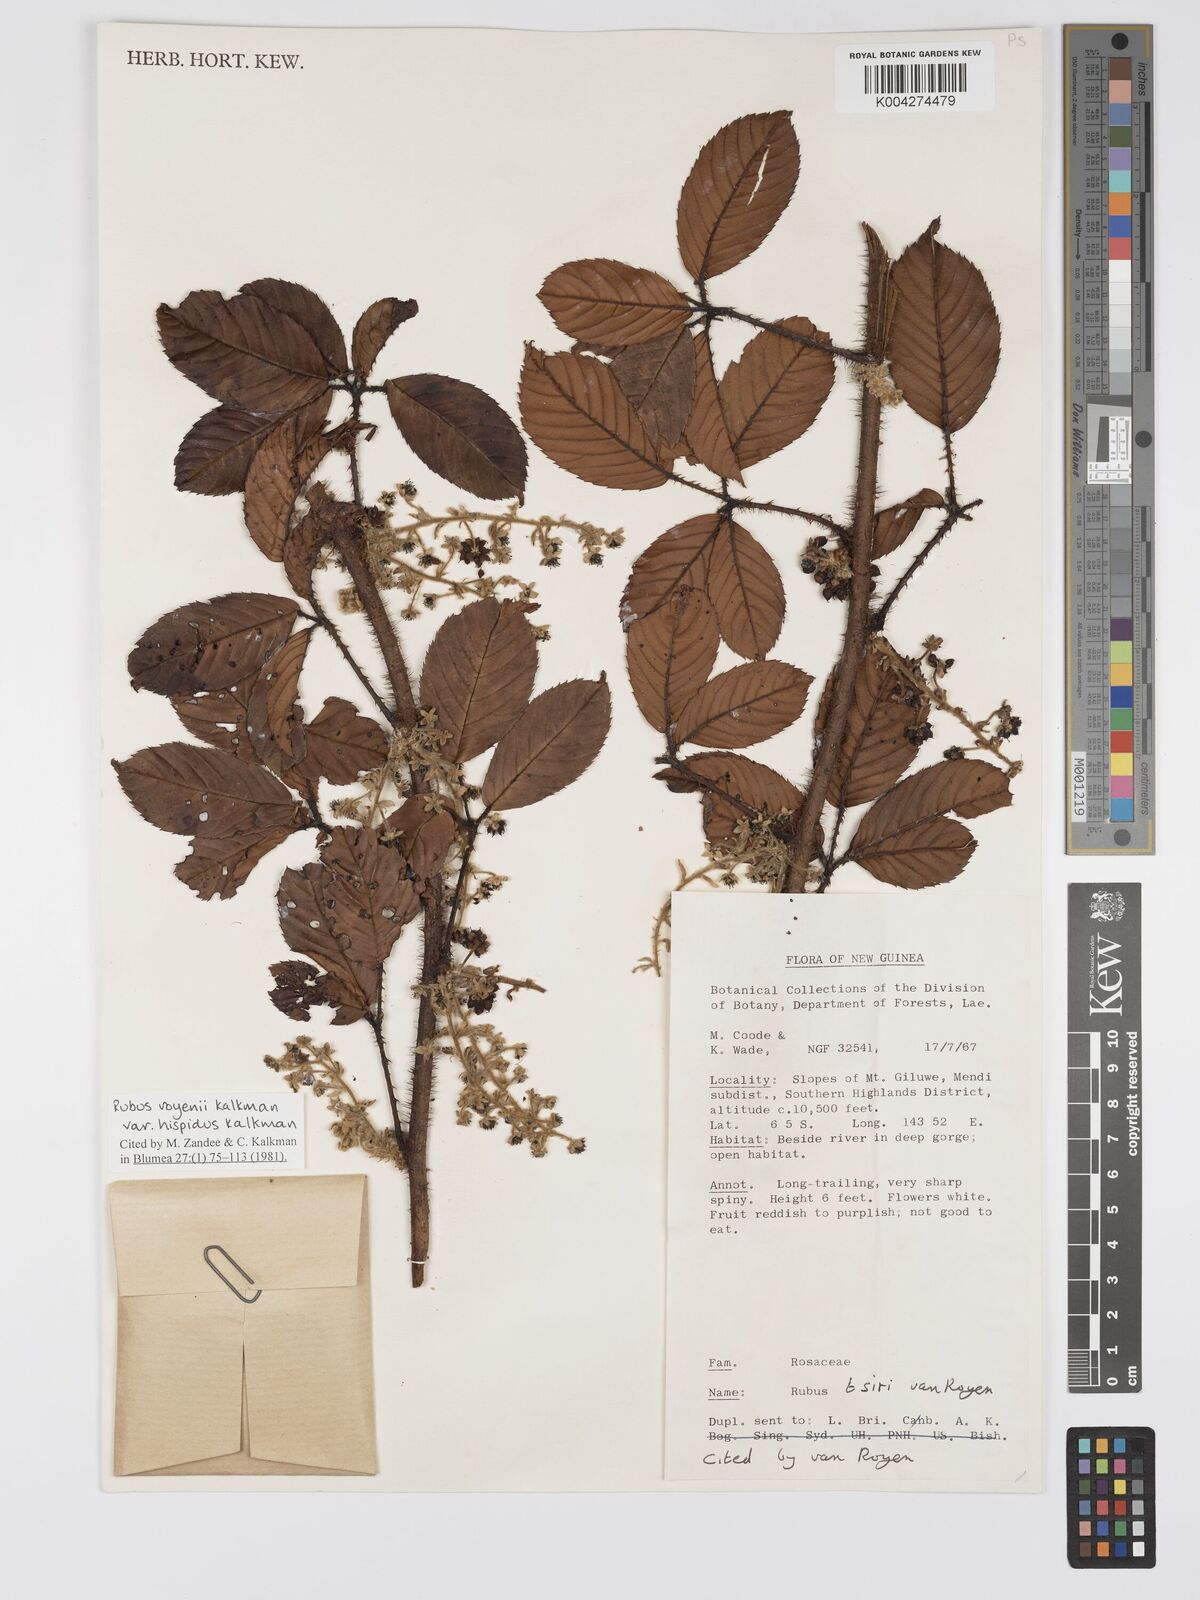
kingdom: Plantae
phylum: Tracheophyta
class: Magnoliopsida
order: Rosales
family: Rosaceae
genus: Rubus
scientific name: Rubus royenii
